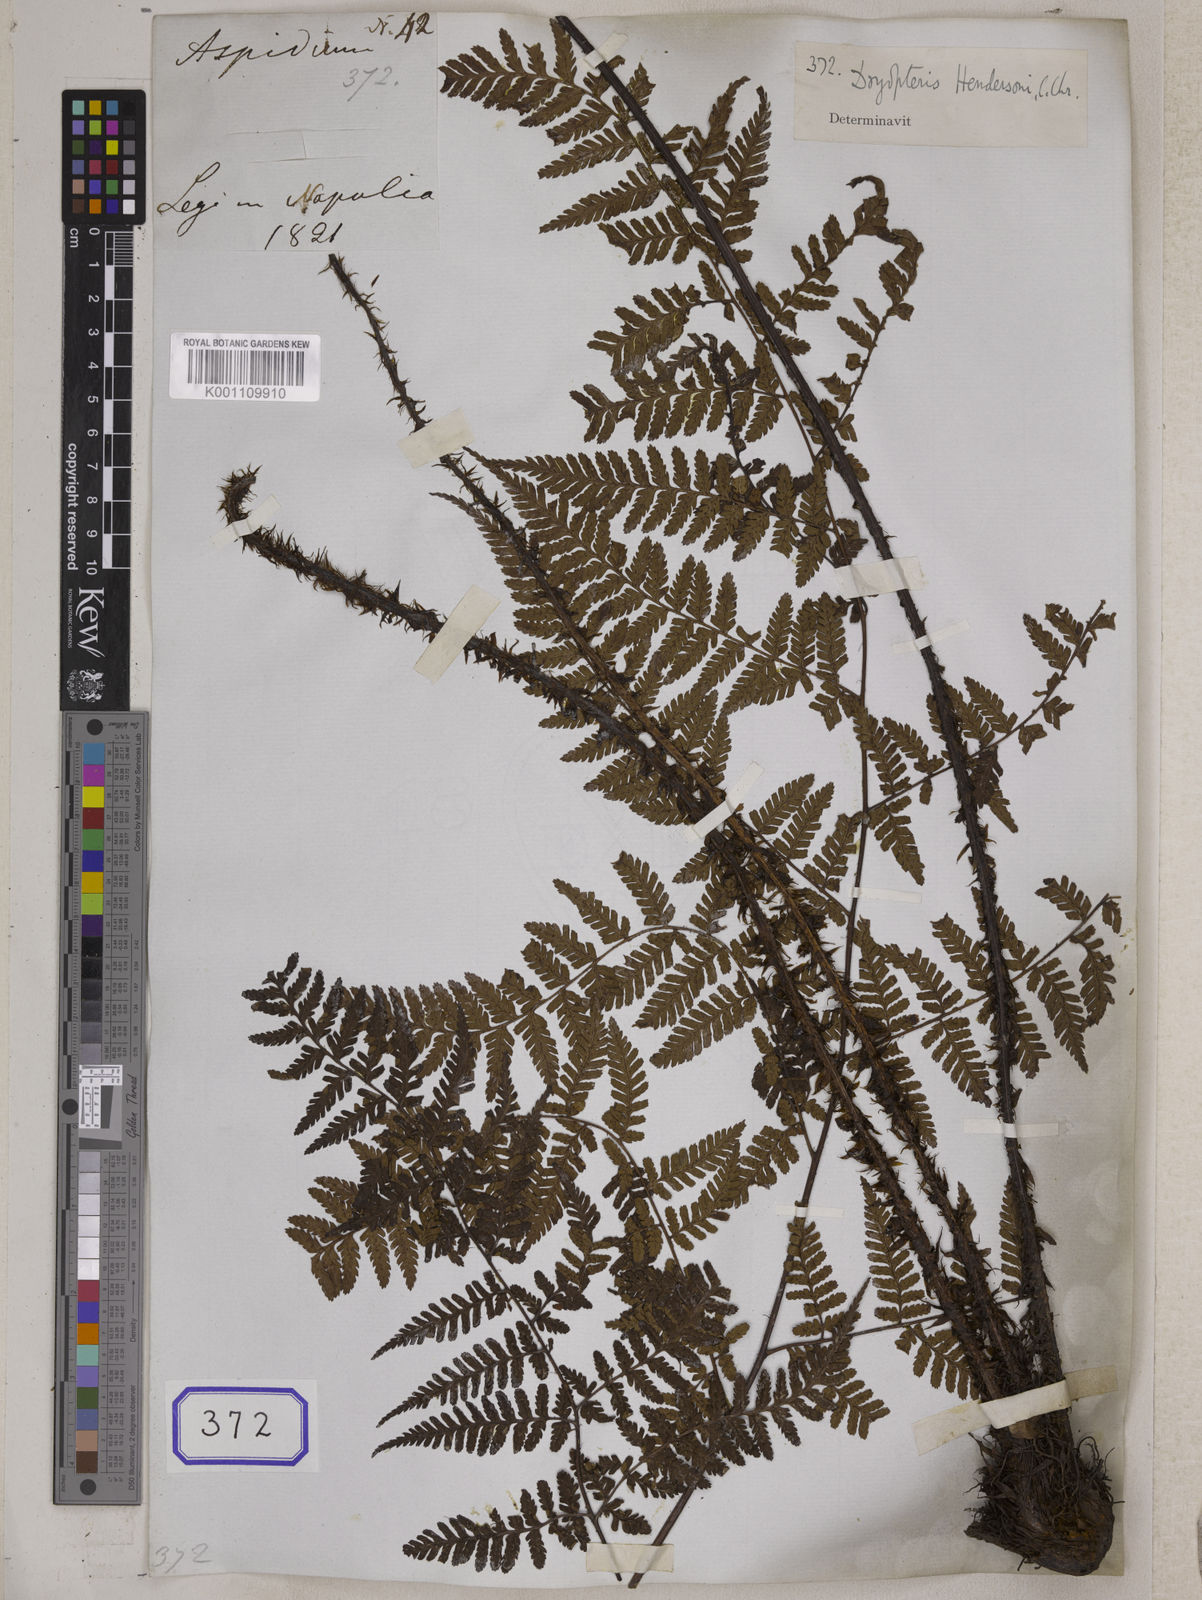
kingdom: Plantae
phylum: Tracheophyta
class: Polypodiopsida
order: Polypodiales
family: Dryopteridaceae
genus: Dryopteris
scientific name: Dryopteris hendersonii
